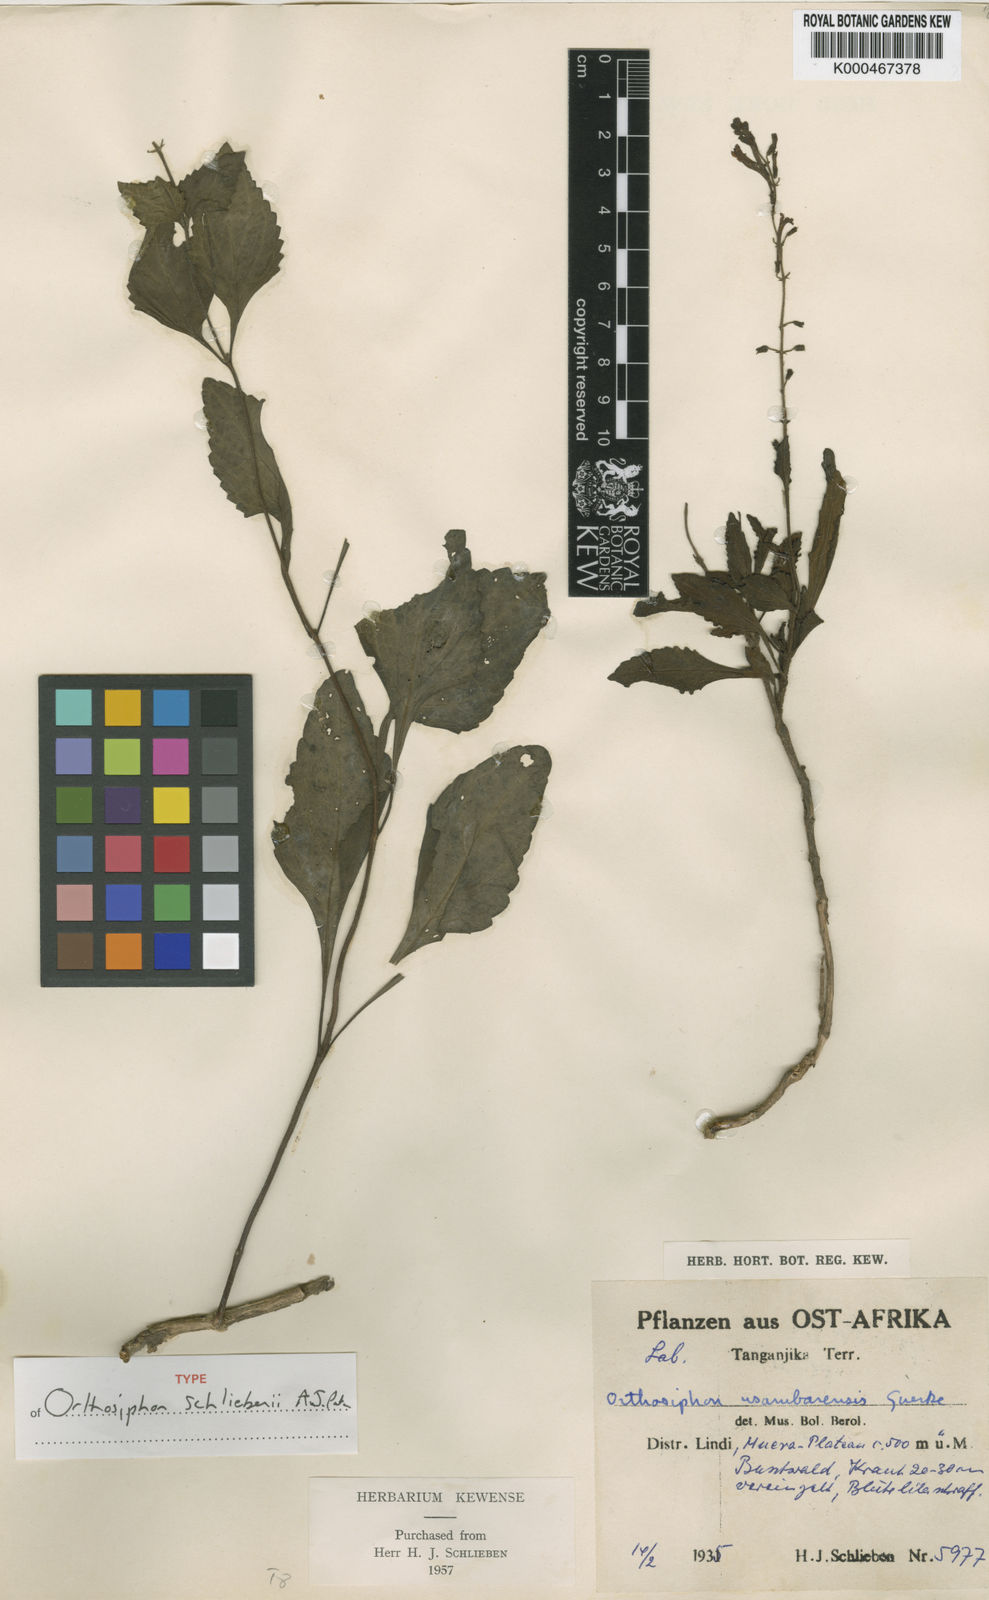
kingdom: Plantae
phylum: Tracheophyta
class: Magnoliopsida
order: Lamiales
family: Lamiaceae
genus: Orthosiphon
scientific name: Orthosiphon schliebenii
